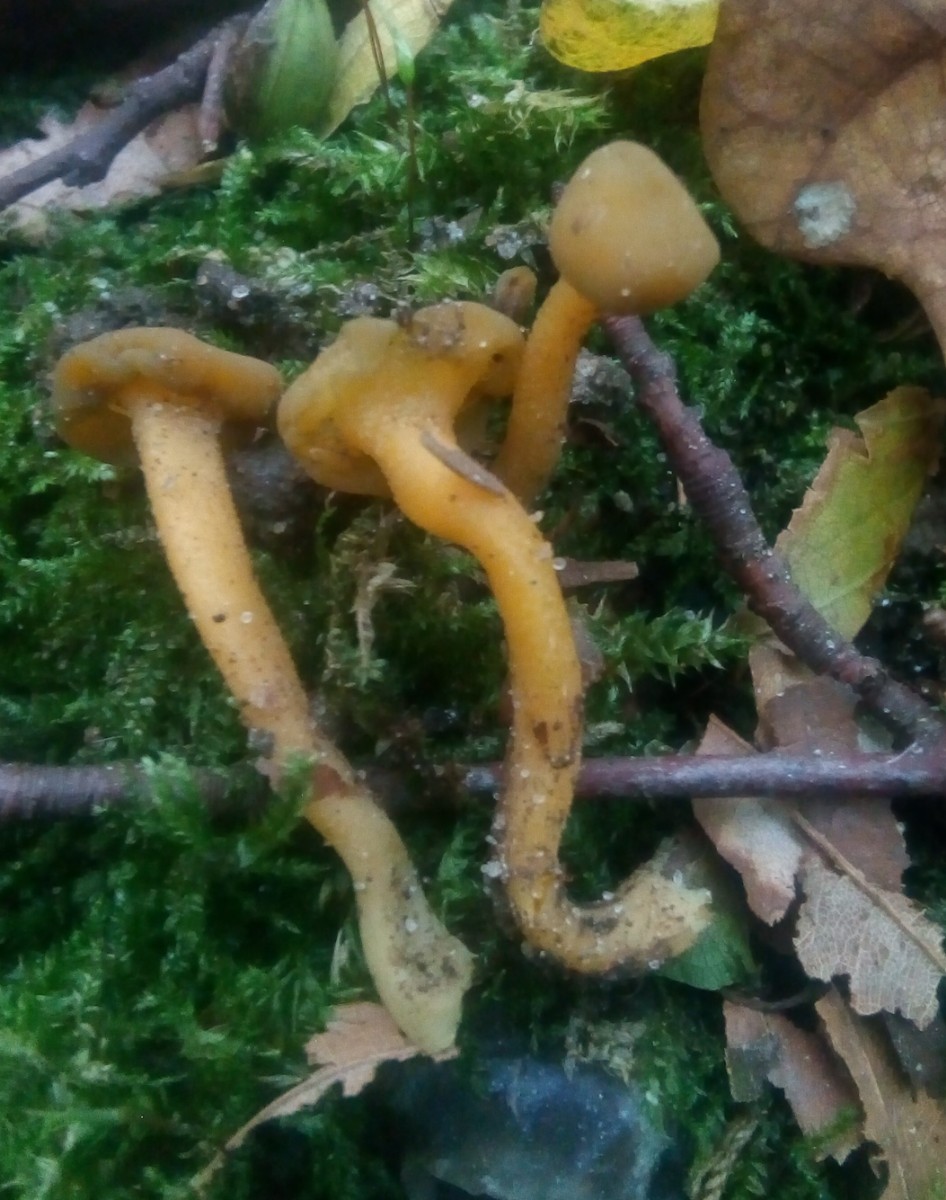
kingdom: Fungi
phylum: Ascomycota
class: Leotiomycetes
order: Leotiales
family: Leotiaceae
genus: Leotia
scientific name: Leotia lubrica
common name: ravsvamp
